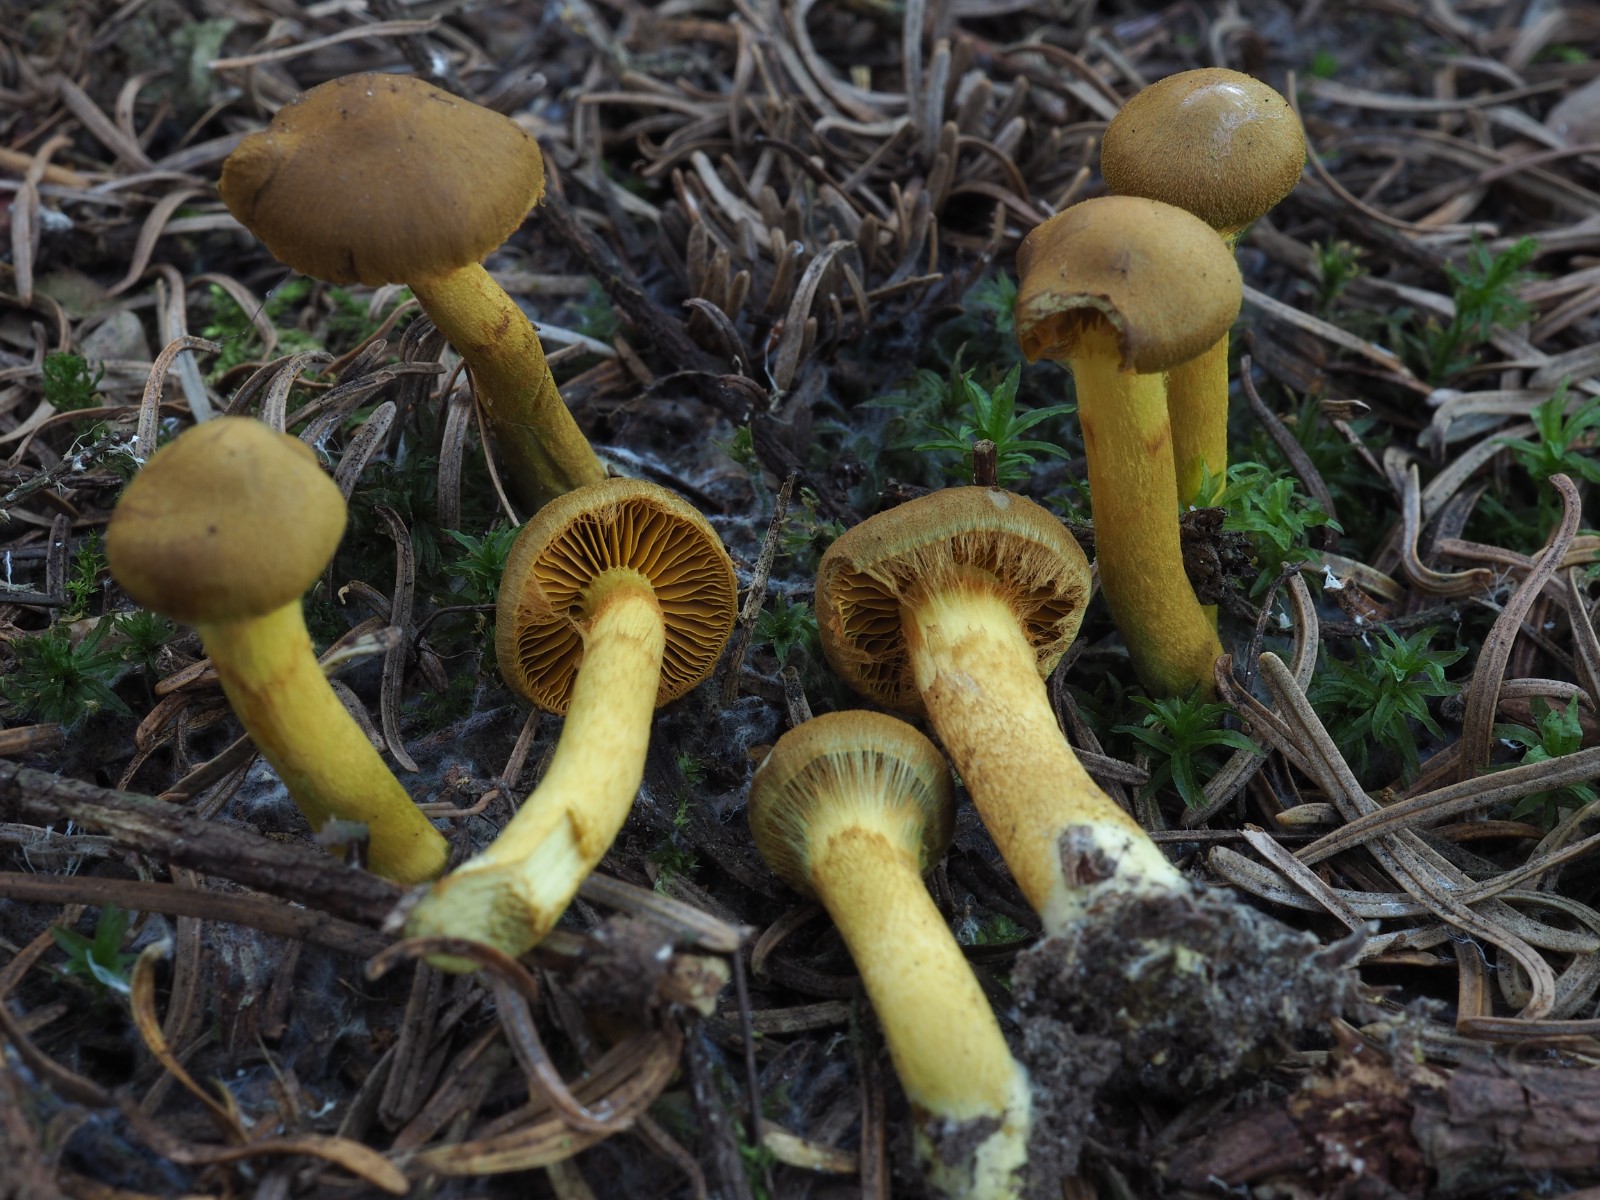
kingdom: Fungi
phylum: Basidiomycota
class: Agaricomycetes
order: Agaricales
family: Cortinariaceae
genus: Cortinarius
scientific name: Cortinarius
